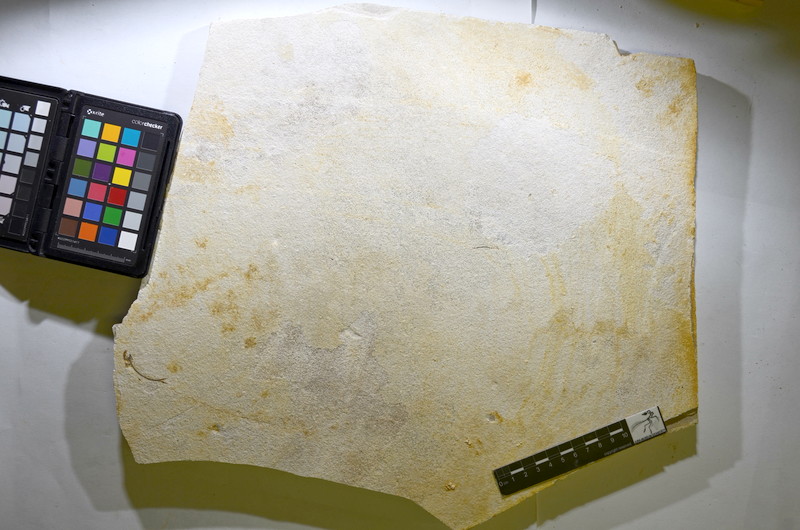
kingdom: Animalia
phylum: Chordata
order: Salmoniformes
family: Orthogonikleithridae
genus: Orthogonikleithrus
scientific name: Orthogonikleithrus hoelli
